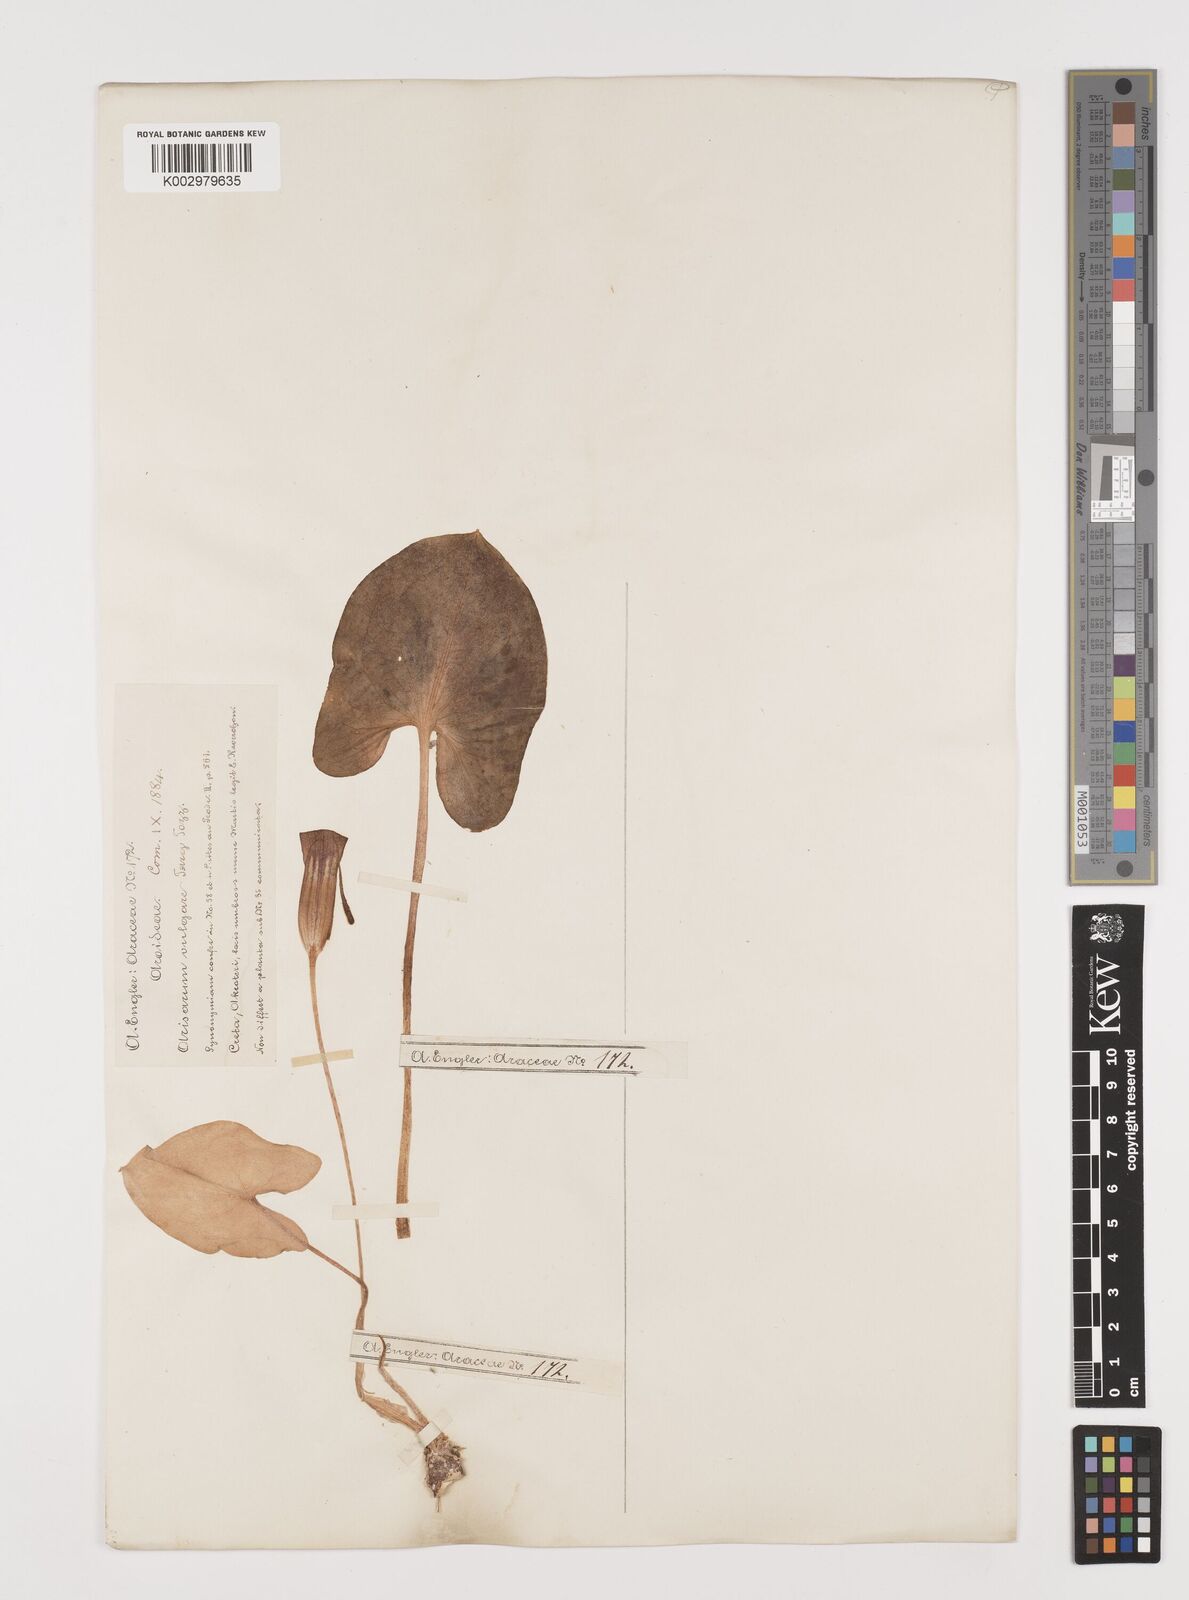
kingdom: Plantae
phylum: Tracheophyta
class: Liliopsida
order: Alismatales
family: Araceae
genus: Arisarum
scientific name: Arisarum vulgare
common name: Common arisarum
